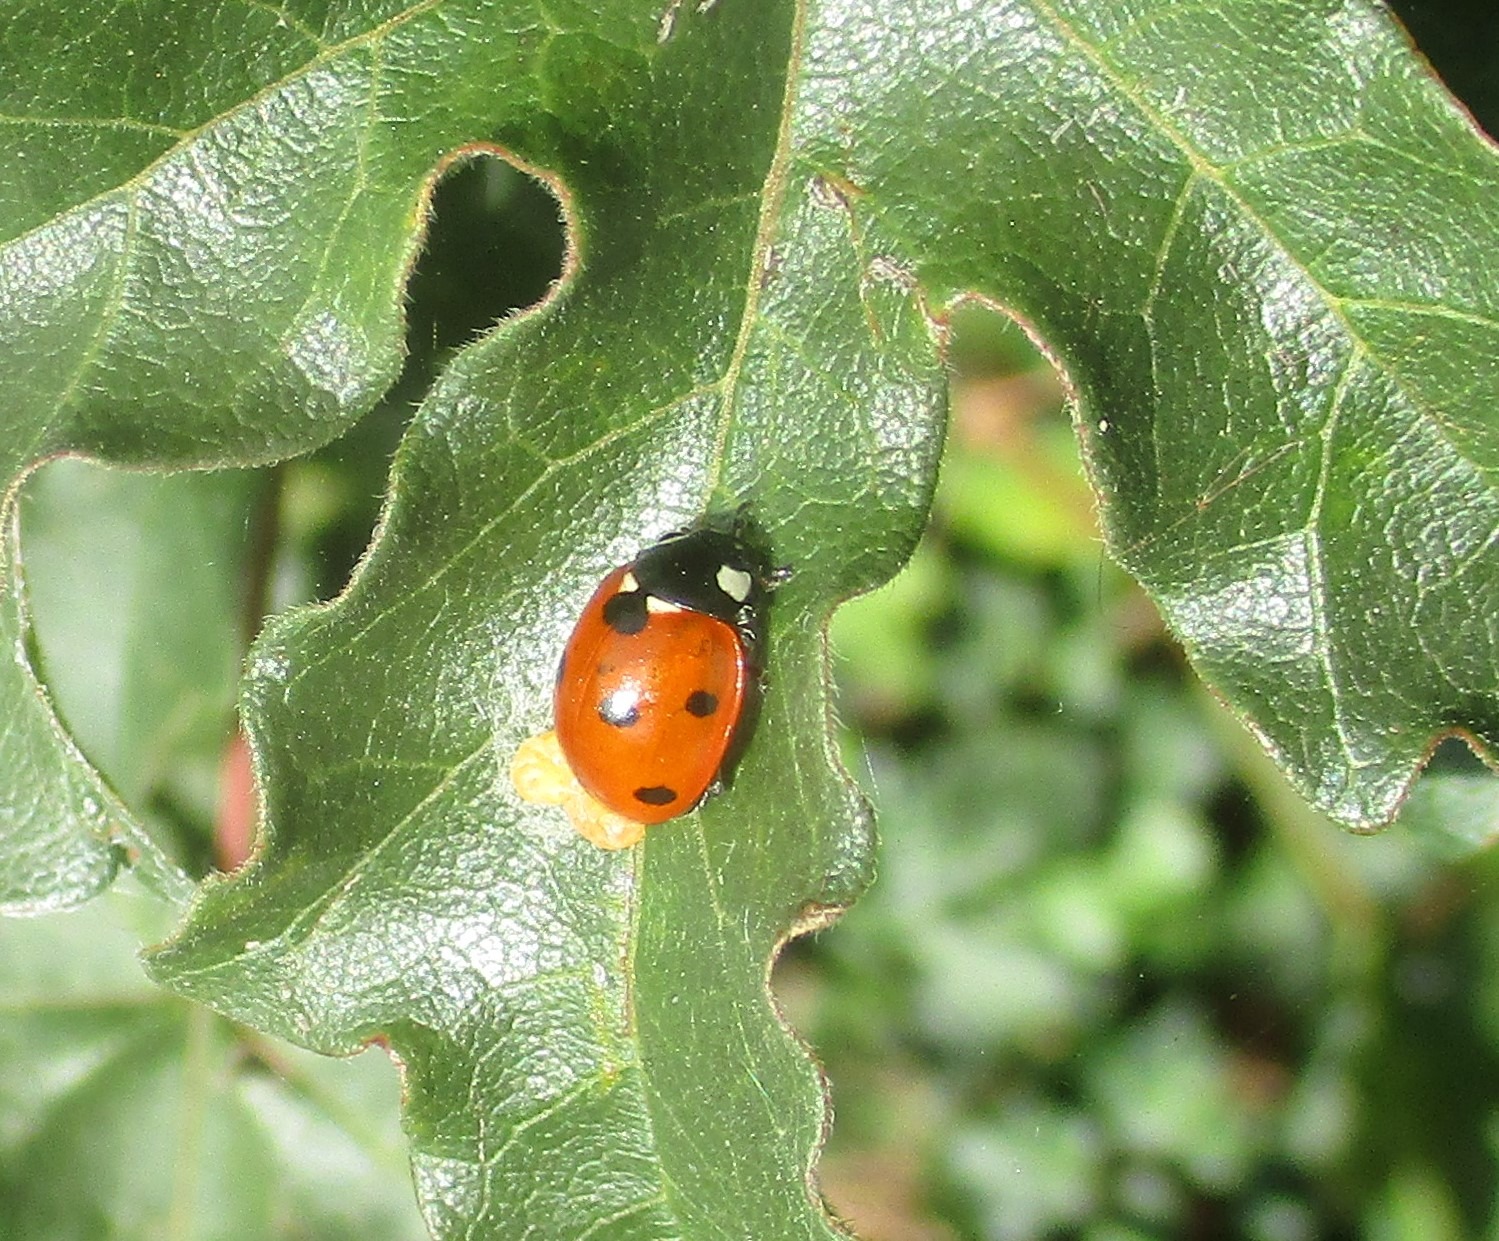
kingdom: Animalia
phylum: Arthropoda
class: Insecta
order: Coleoptera
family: Coccinellidae
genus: Coccinella
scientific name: Coccinella septempunctata
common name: Syvplettet mariehøne
